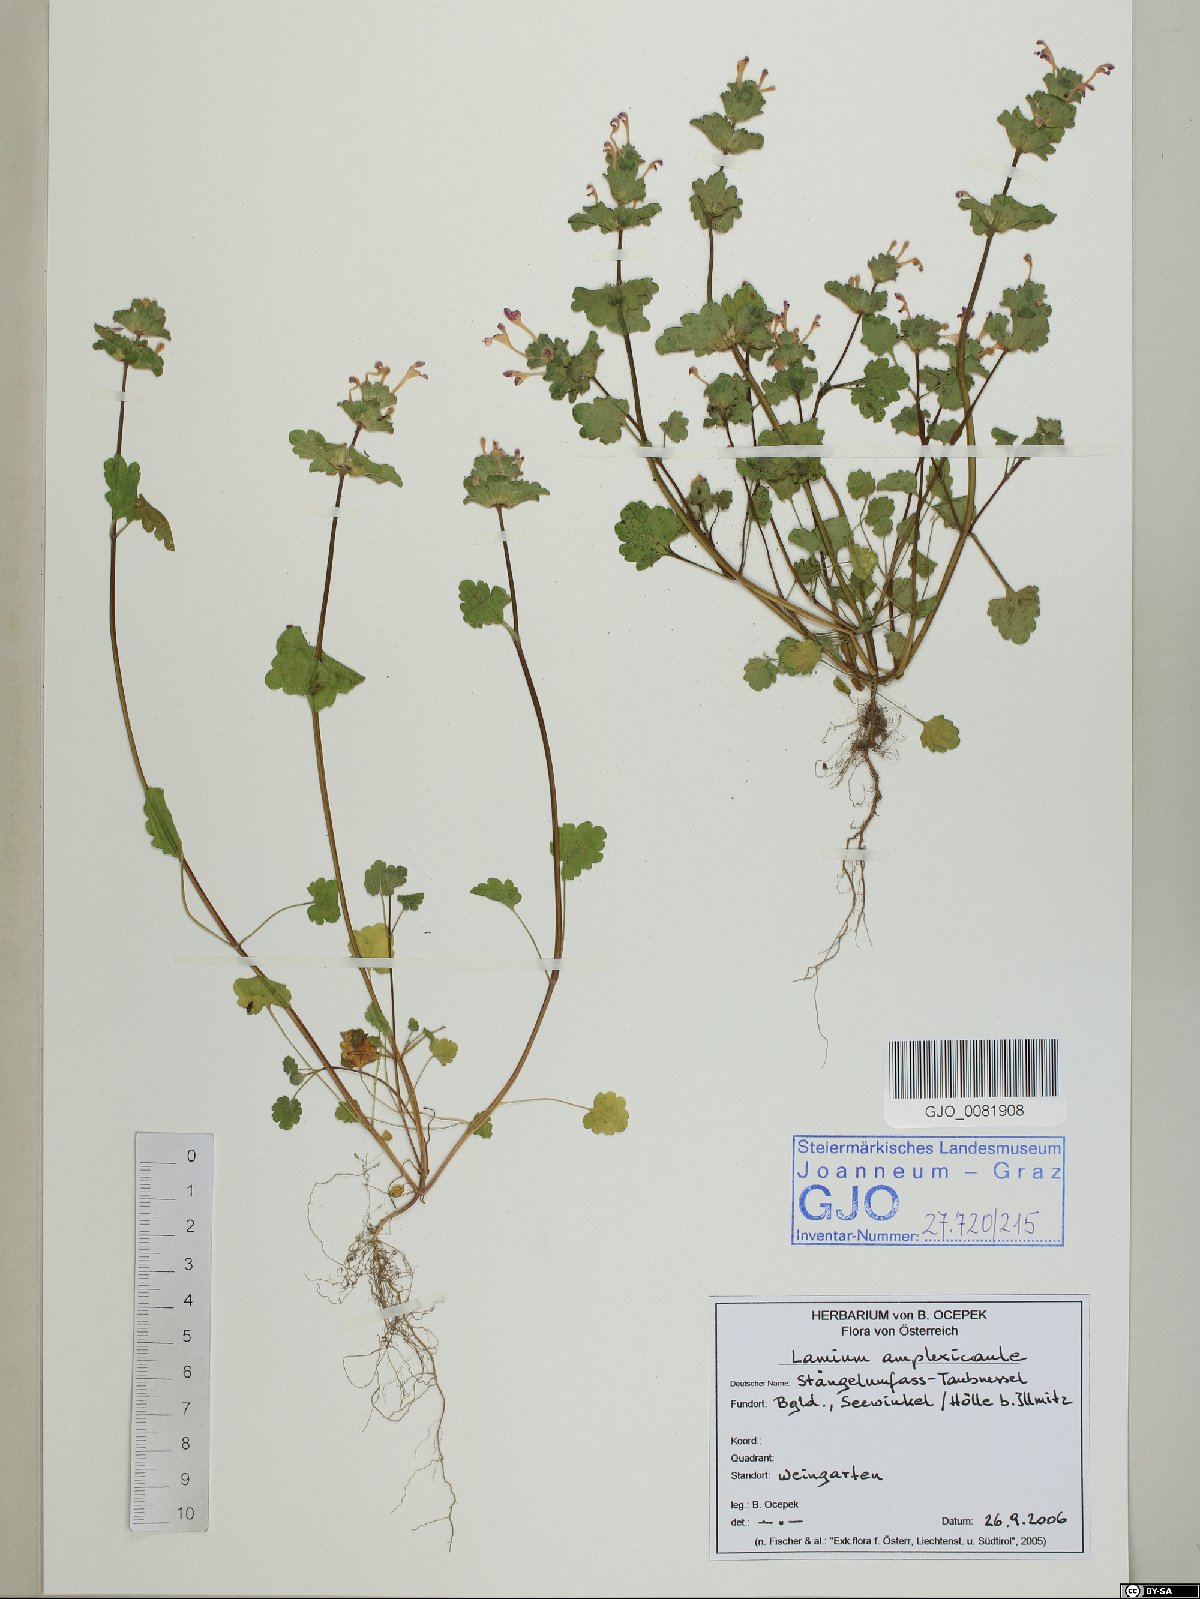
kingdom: Plantae
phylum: Tracheophyta
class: Magnoliopsida
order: Lamiales
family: Lamiaceae
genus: Lamium
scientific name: Lamium amplexicaule
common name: Henbit dead-nettle
